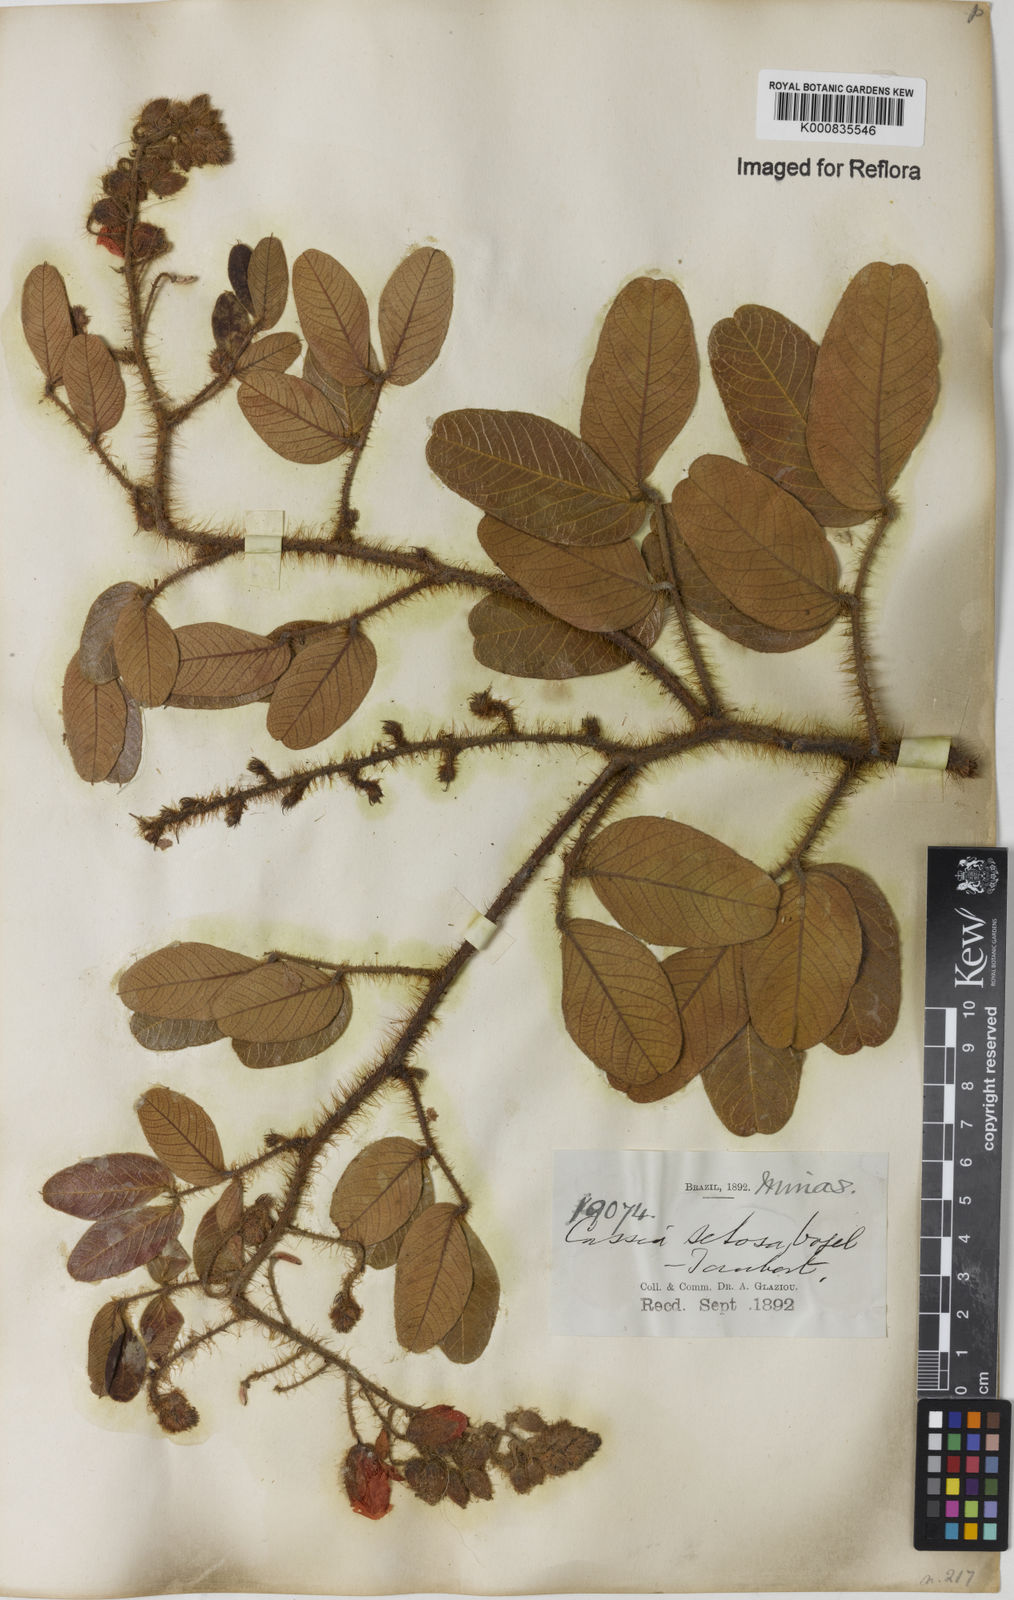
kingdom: Plantae
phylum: Tracheophyta
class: Magnoliopsida
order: Fabales
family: Fabaceae
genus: Chamaecrista
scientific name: Chamaecrista setosa
